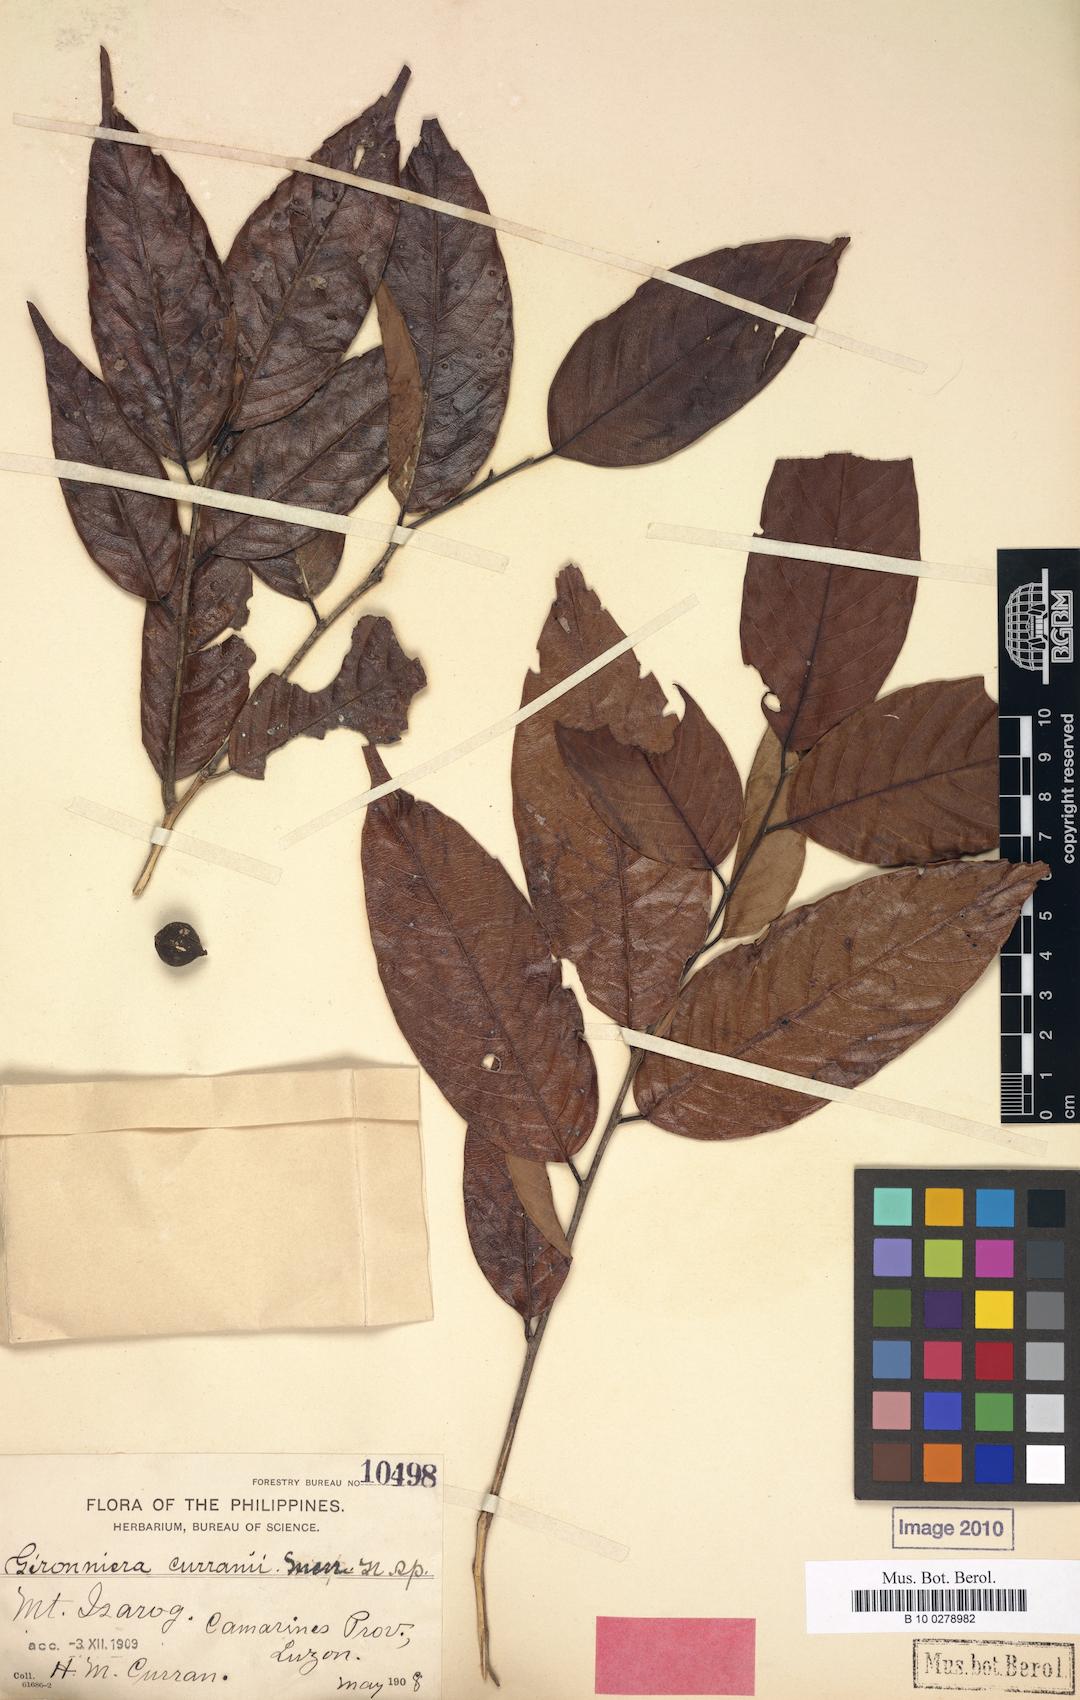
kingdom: Plantae
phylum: Tracheophyta
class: Magnoliopsida
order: Rosales
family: Cannabaceae
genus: Aphananthe
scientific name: Aphananthe cuspidata
